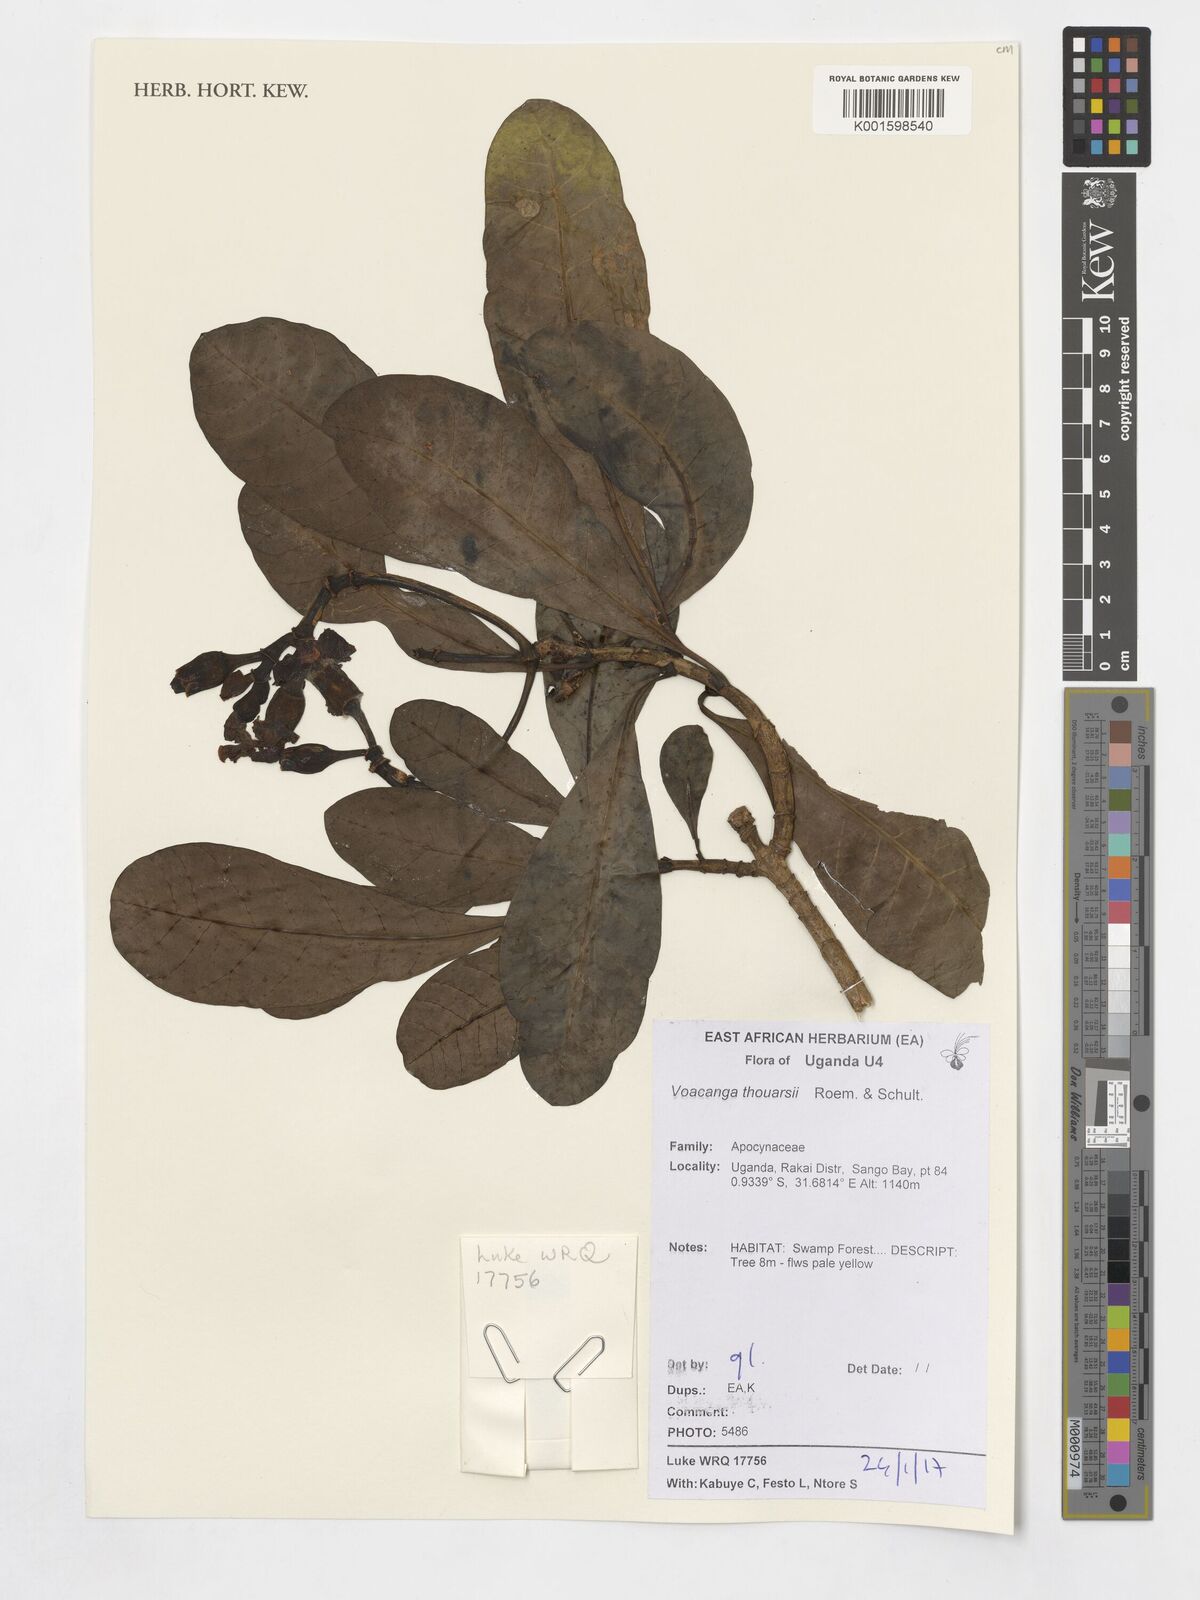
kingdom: Plantae
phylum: Tracheophyta
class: Magnoliopsida
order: Gentianales
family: Apocynaceae
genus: Voacanga
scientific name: Voacanga thouarsii
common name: Wild frangipani
